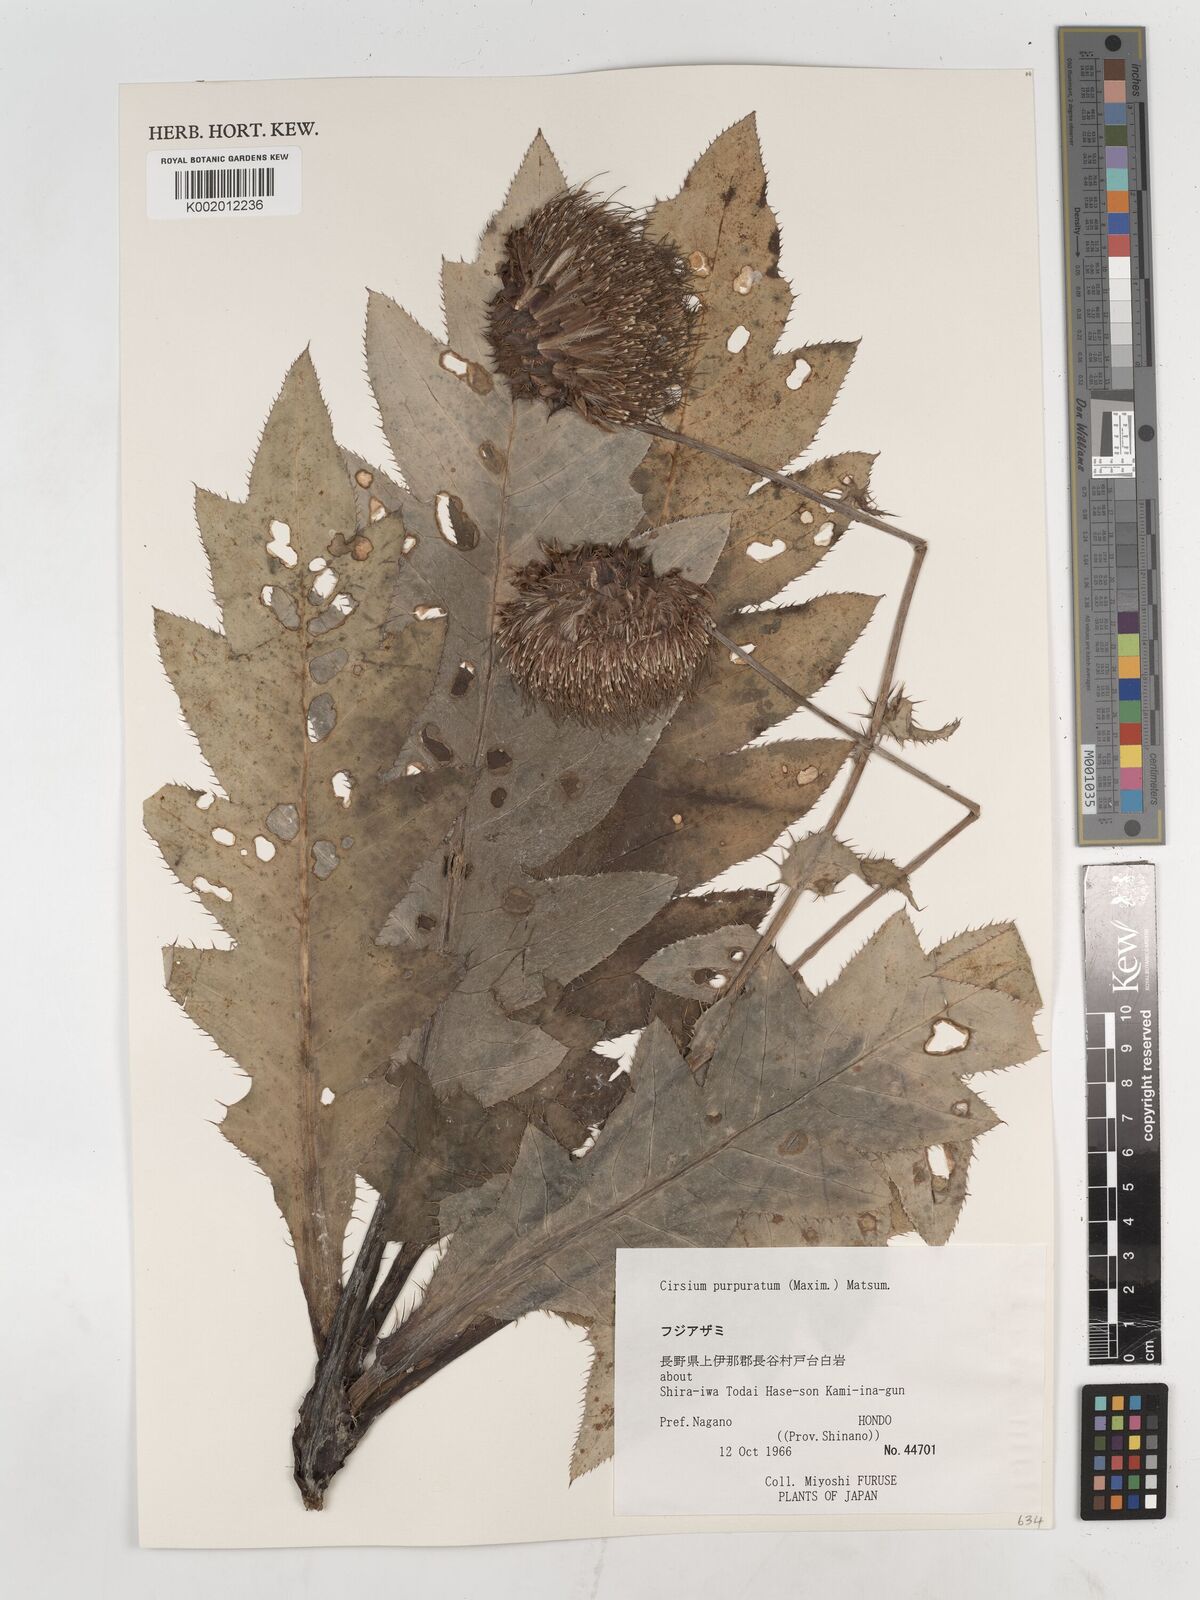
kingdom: Plantae
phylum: Tracheophyta
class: Magnoliopsida
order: Asterales
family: Asteraceae
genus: Cirsium
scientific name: Cirsium purpuratum
